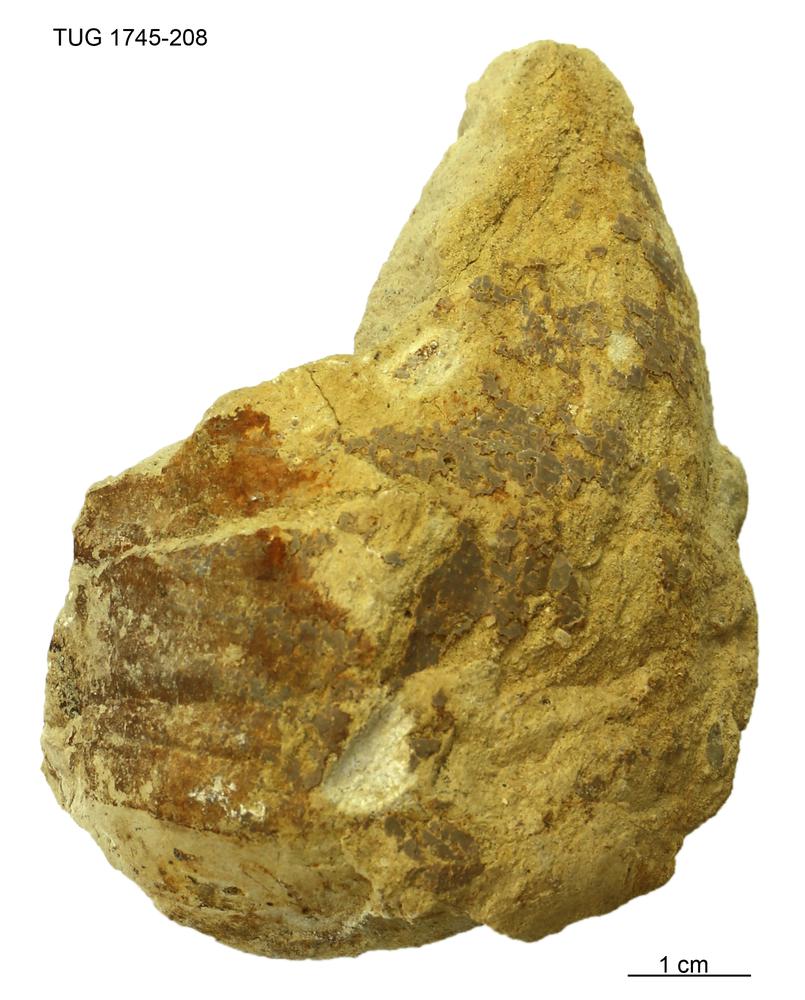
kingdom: Animalia
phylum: Mollusca
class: Cephalopoda
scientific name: Cephalopoda
